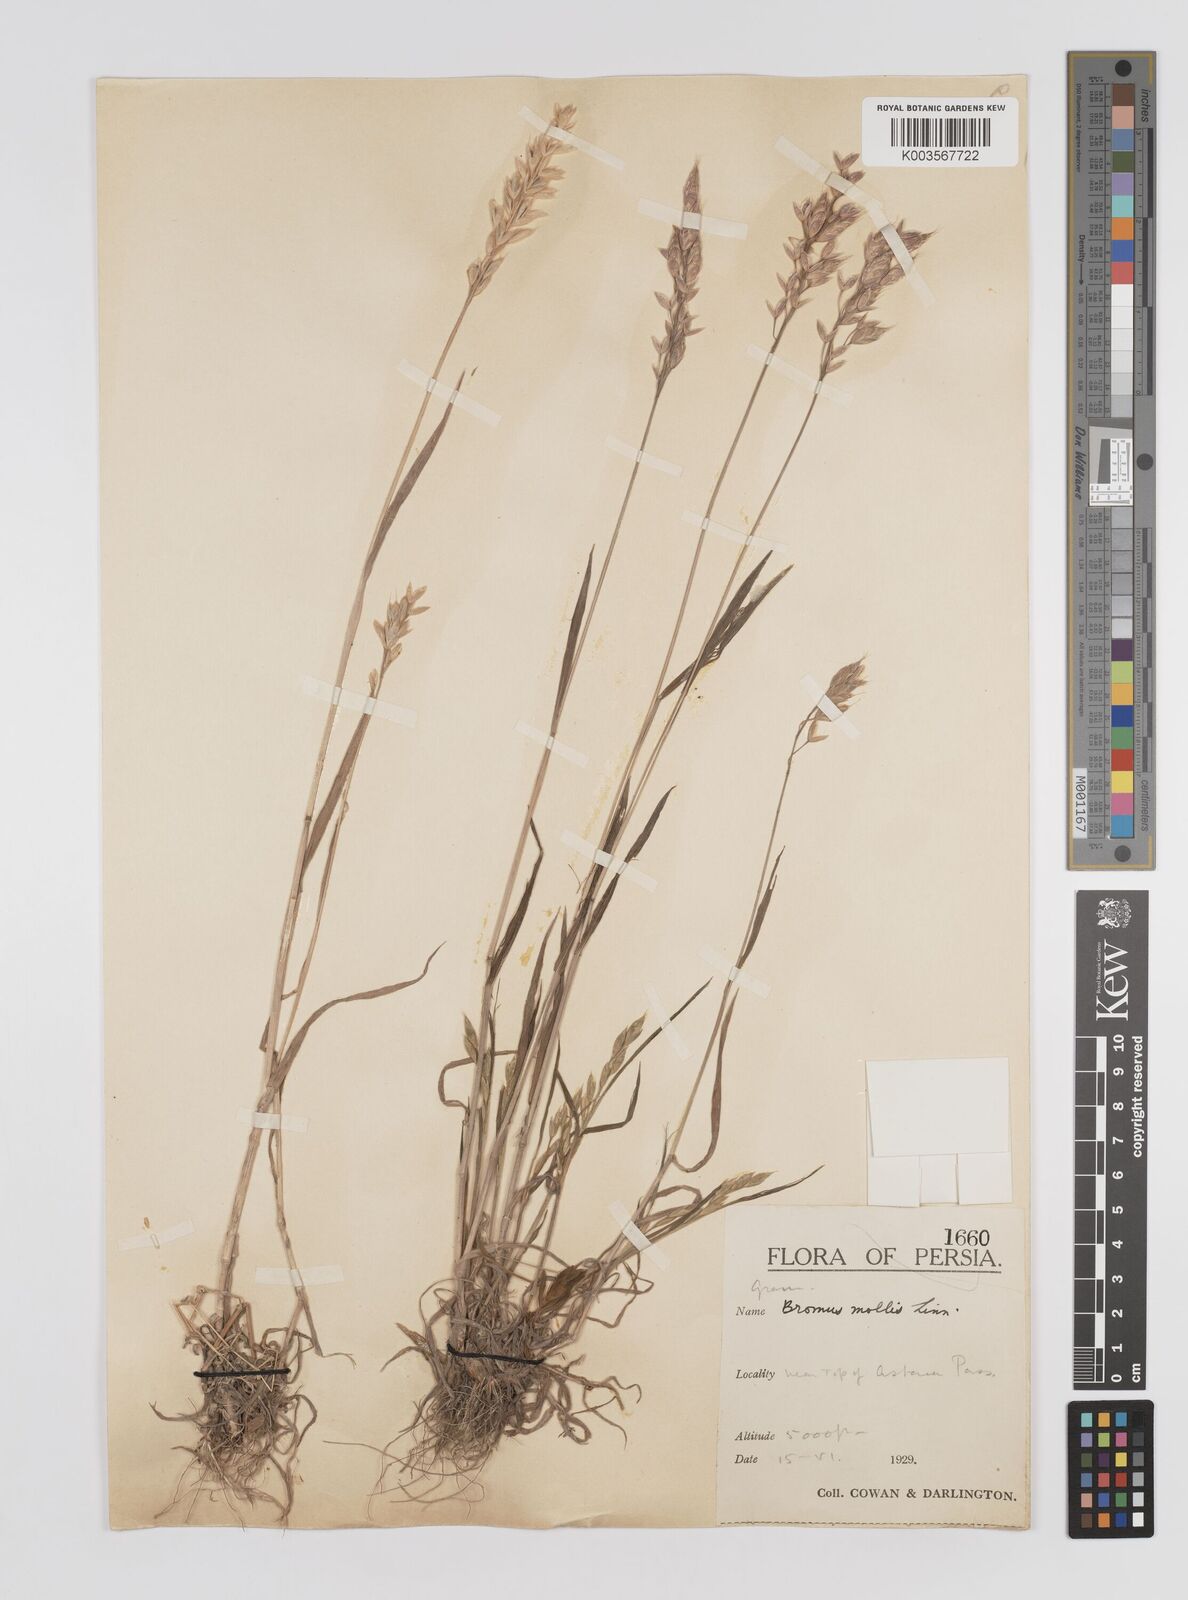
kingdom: Plantae
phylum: Tracheophyta
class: Liliopsida
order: Poales
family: Poaceae
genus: Bromus
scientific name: Bromus
